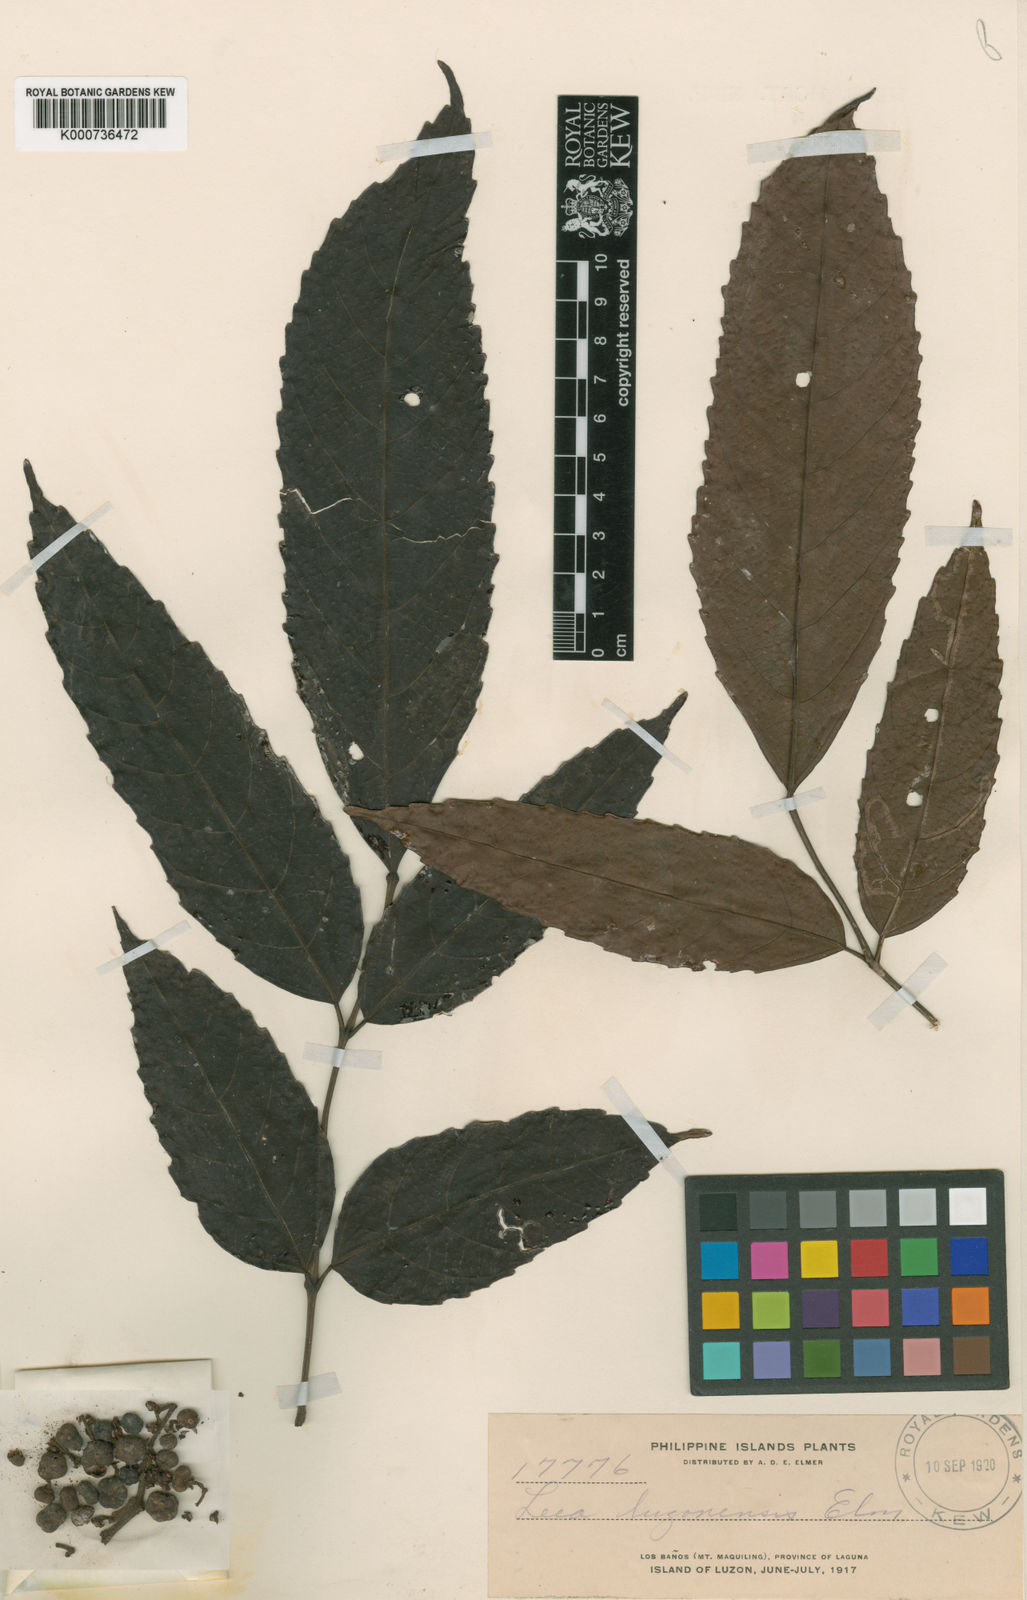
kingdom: Plantae
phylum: Tracheophyta
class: Magnoliopsida
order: Vitales
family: Vitaceae
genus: Leea
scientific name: Leea indica
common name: Bandicoot-berry
